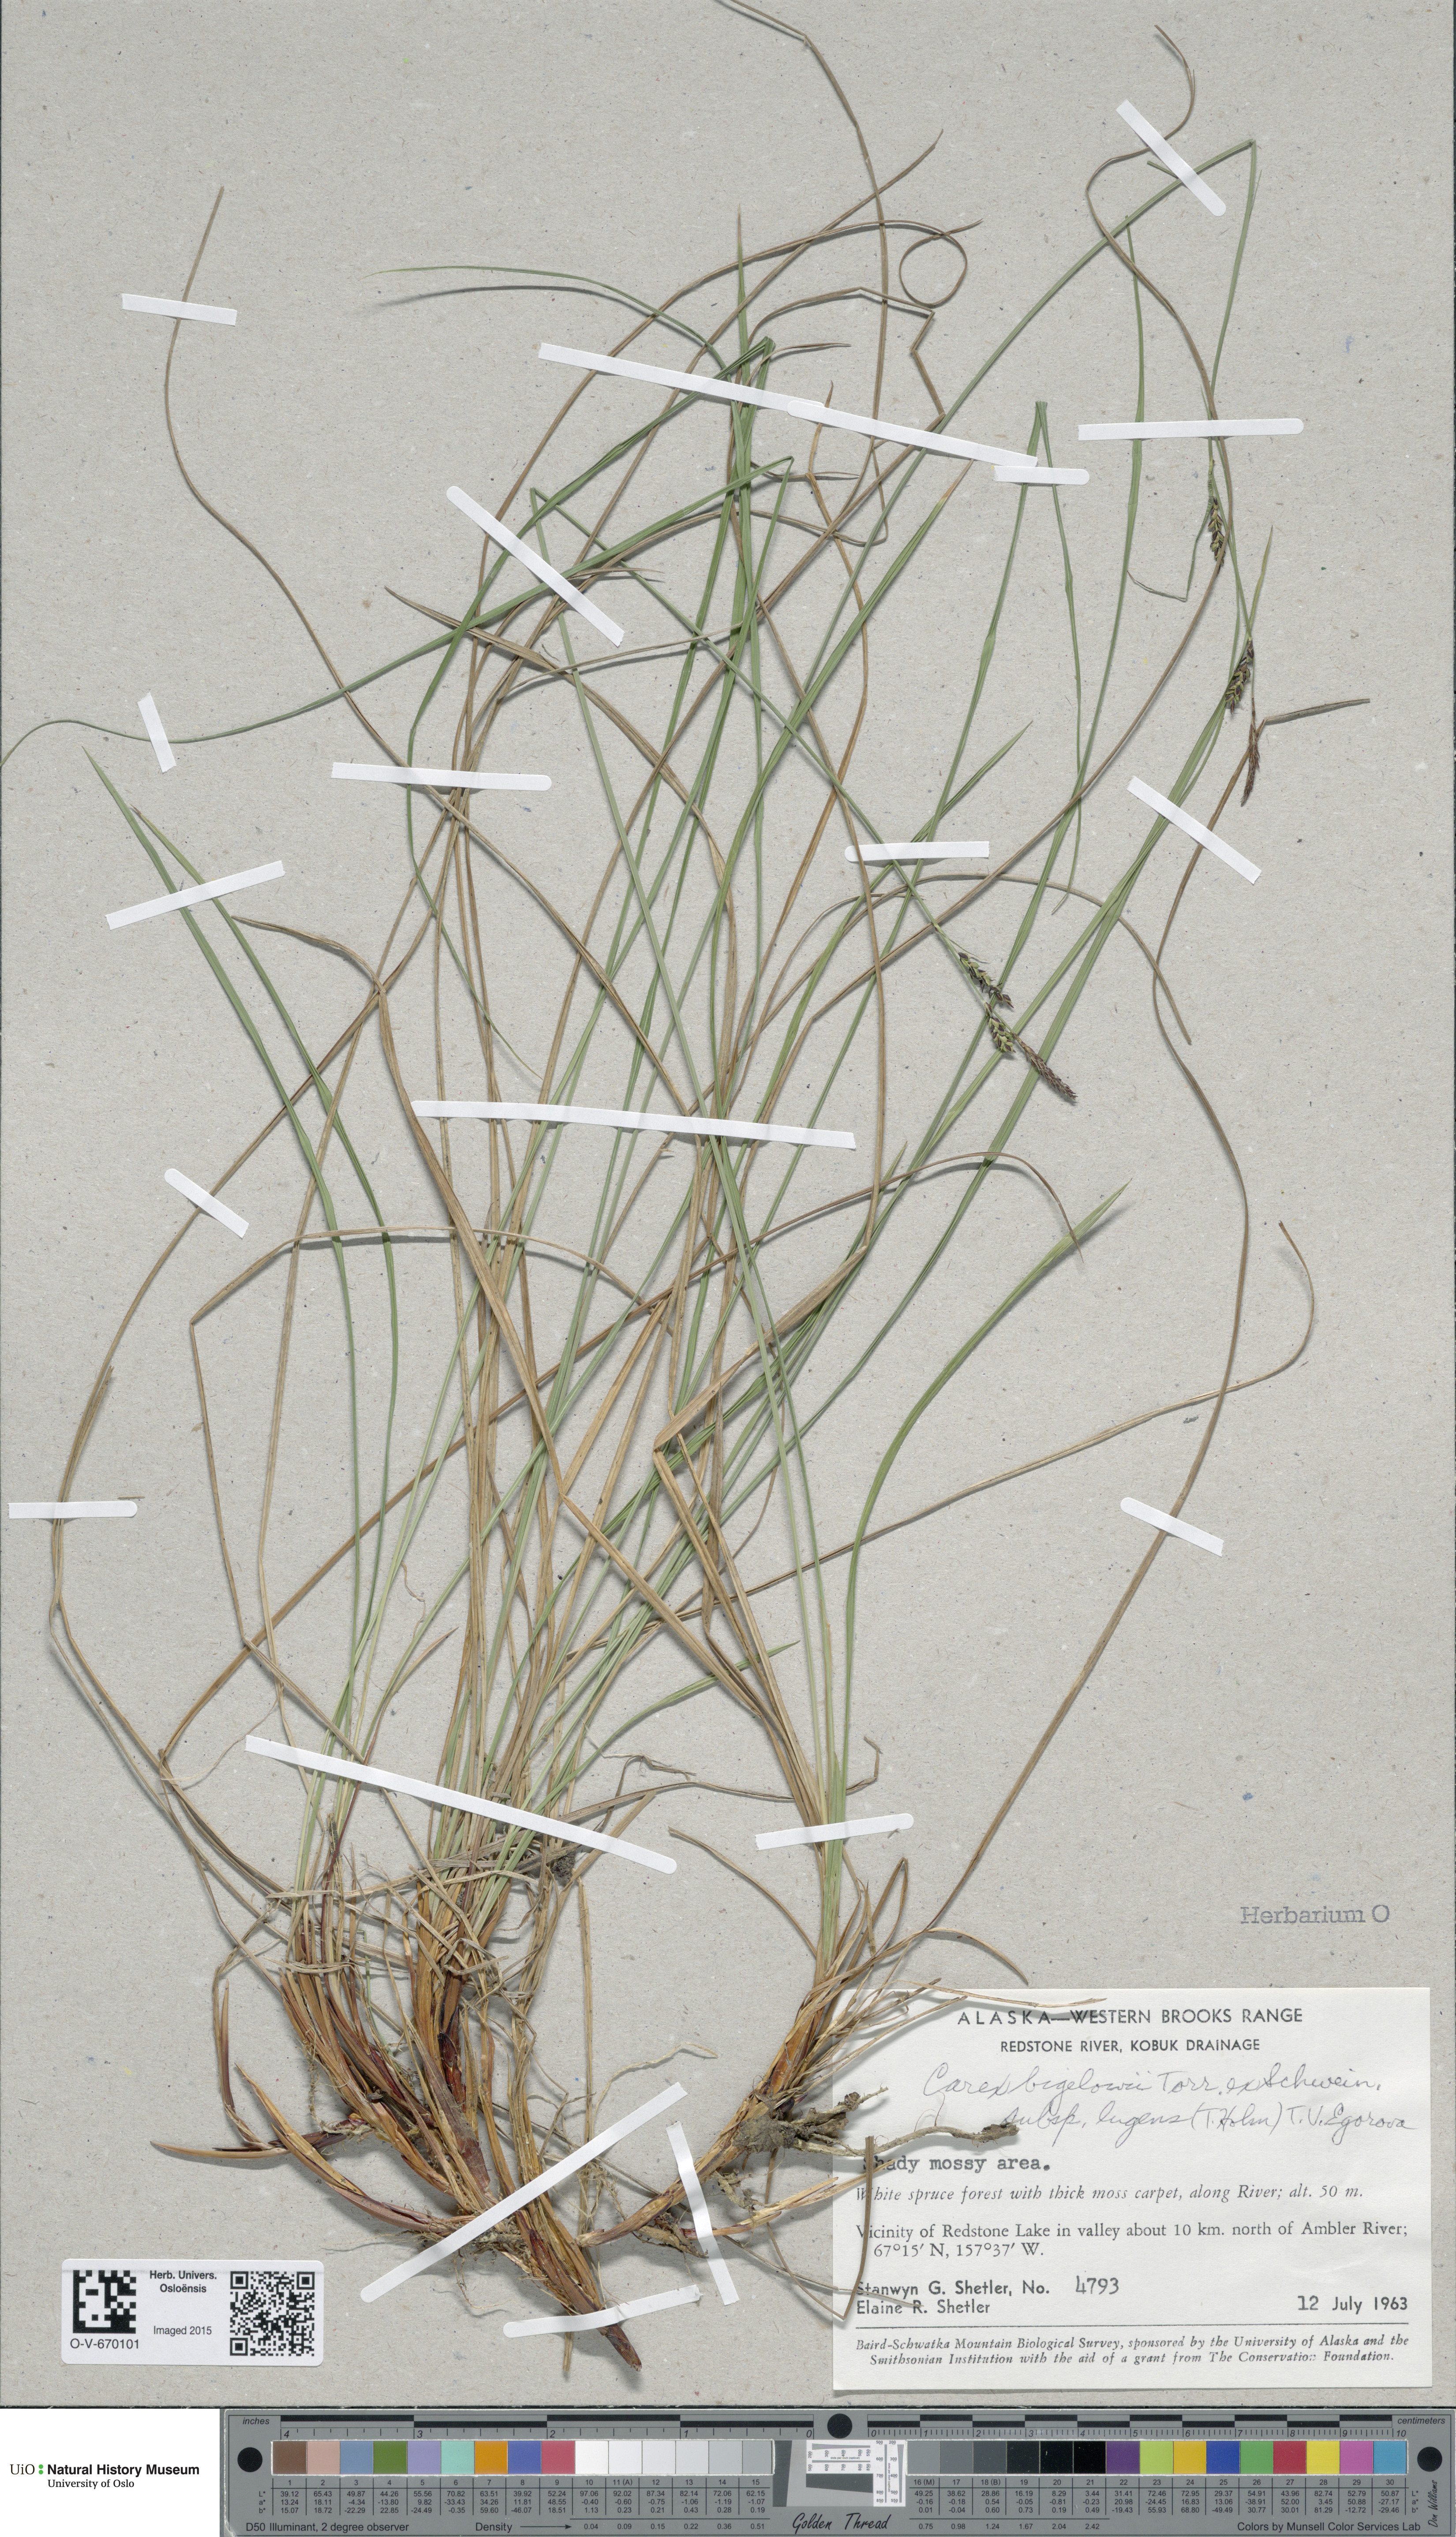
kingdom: Plantae
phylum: Tracheophyta
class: Liliopsida
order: Poales
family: Cyperaceae
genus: Carex
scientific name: Carex bigelowii
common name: Stiff sedge
